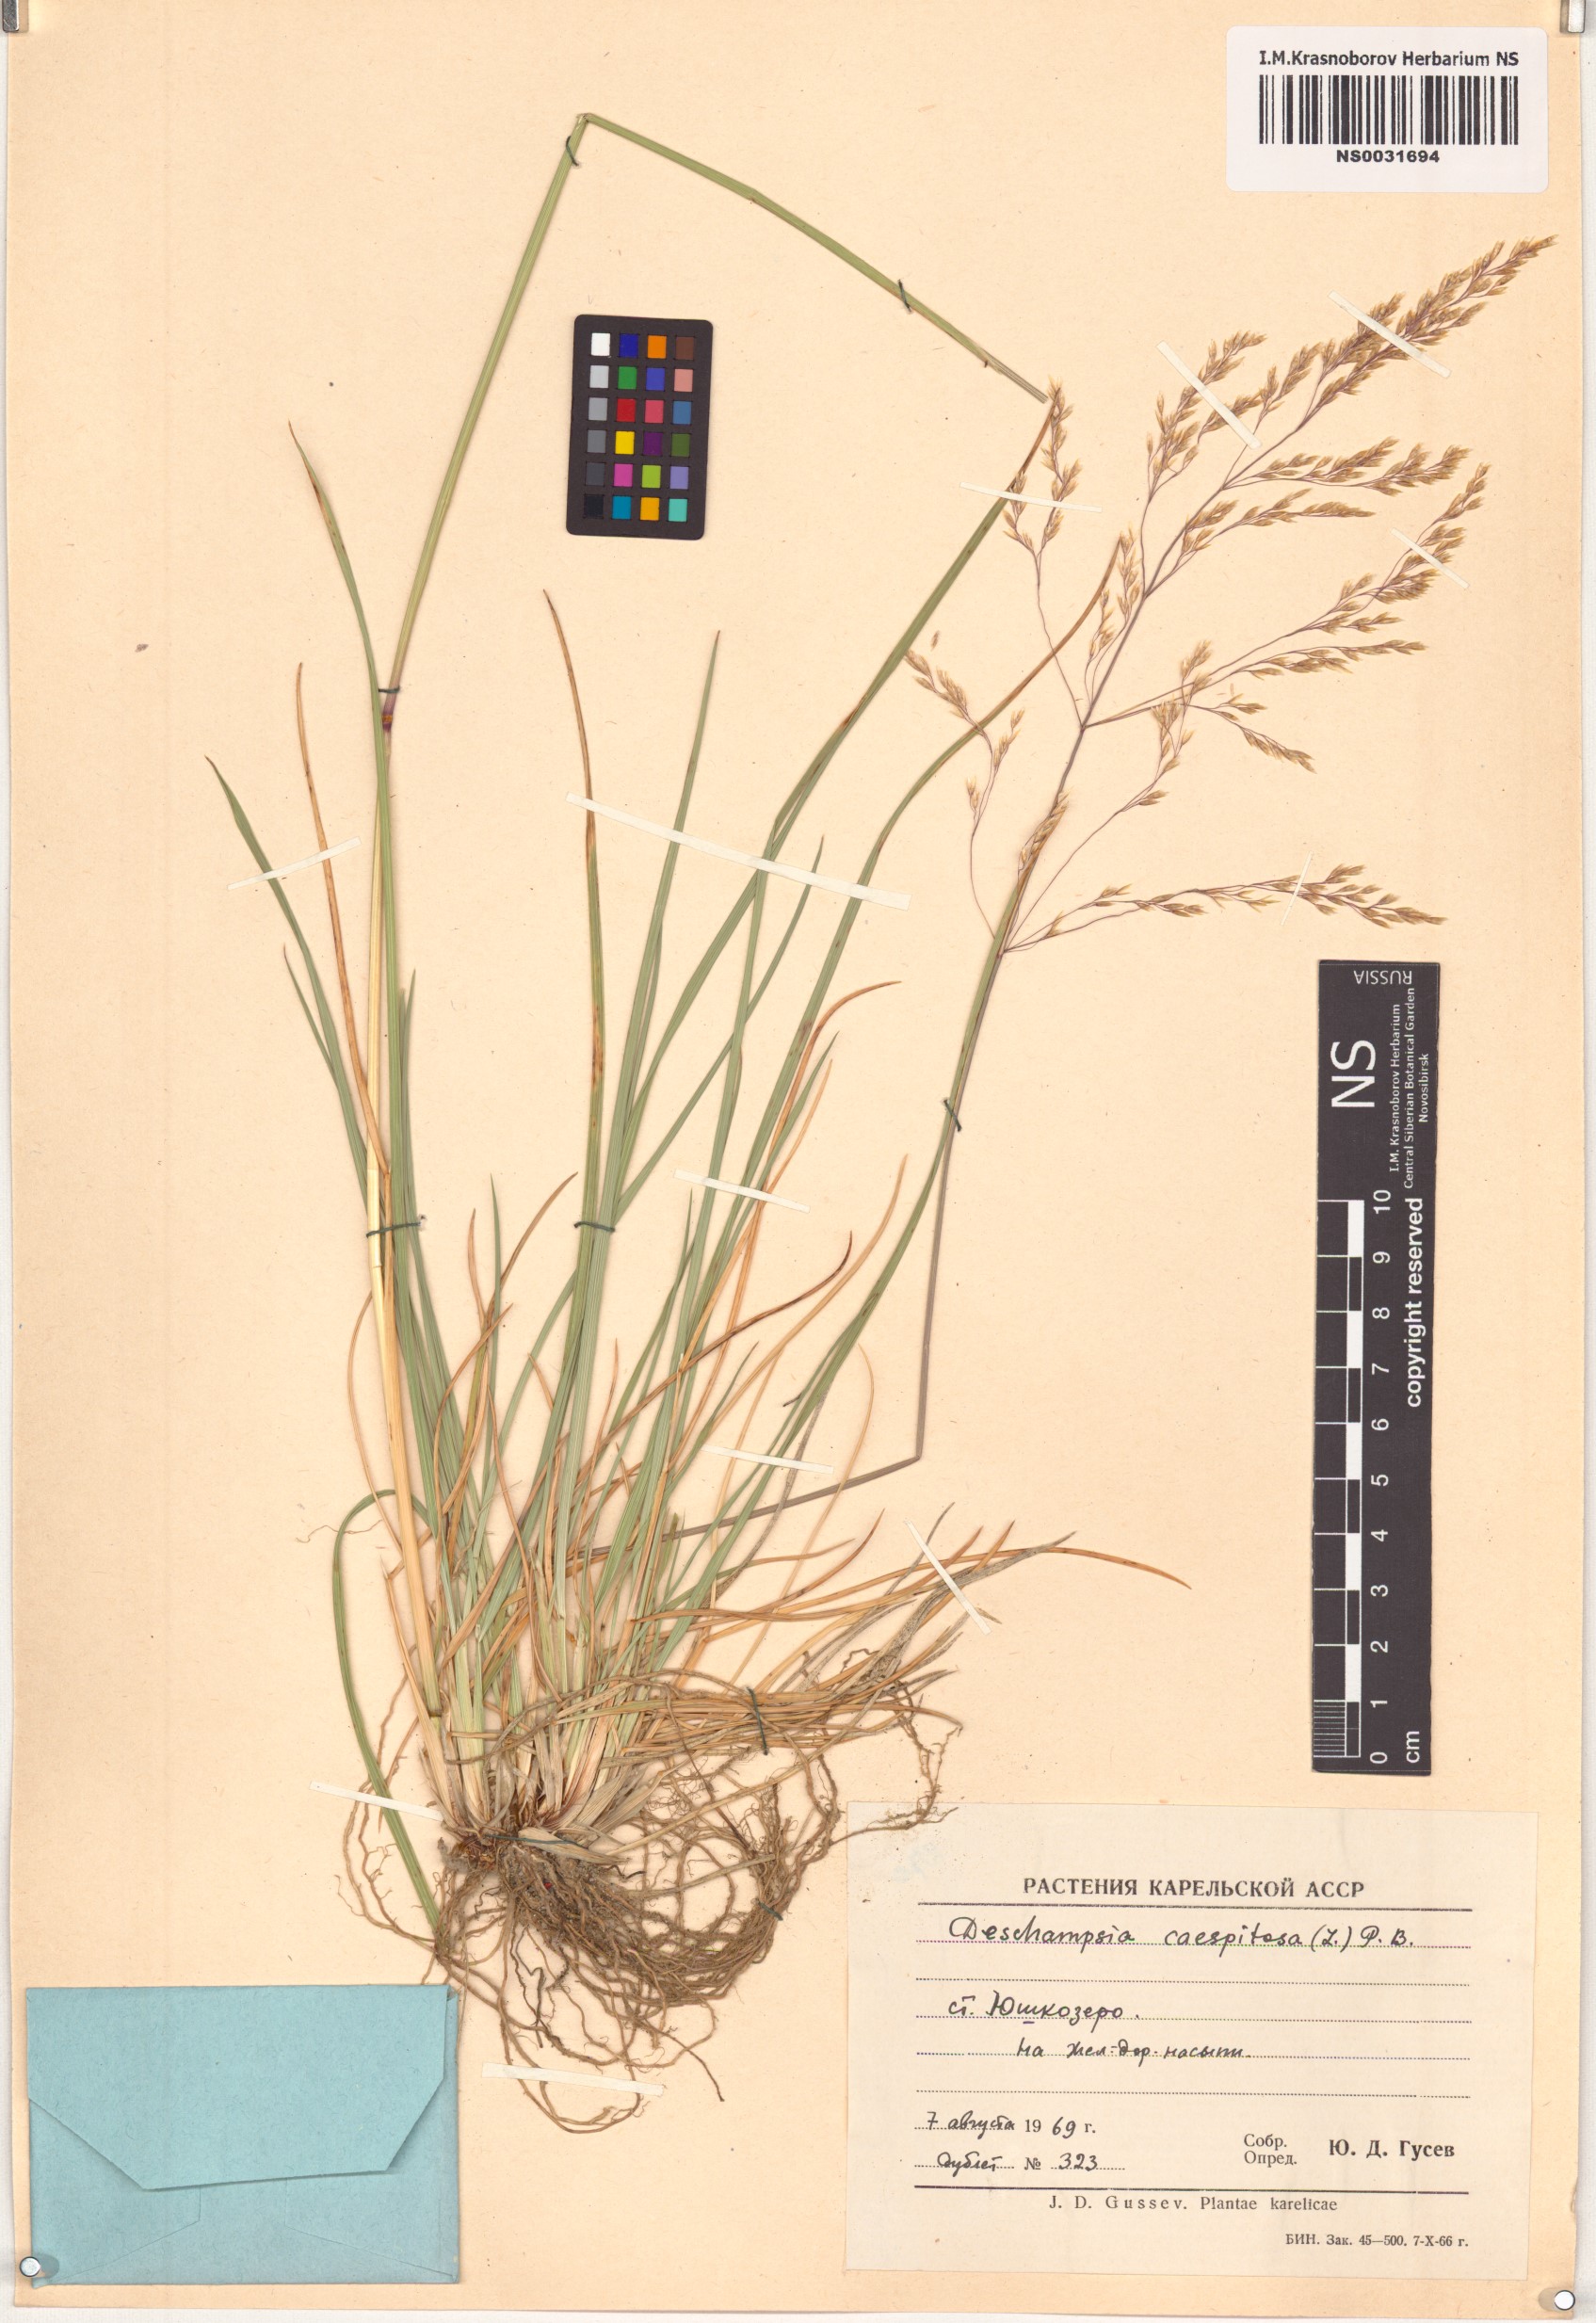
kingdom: Plantae
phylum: Tracheophyta
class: Liliopsida
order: Poales
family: Poaceae
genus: Deschampsia
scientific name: Deschampsia cespitosa
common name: Tufted hair-grass
